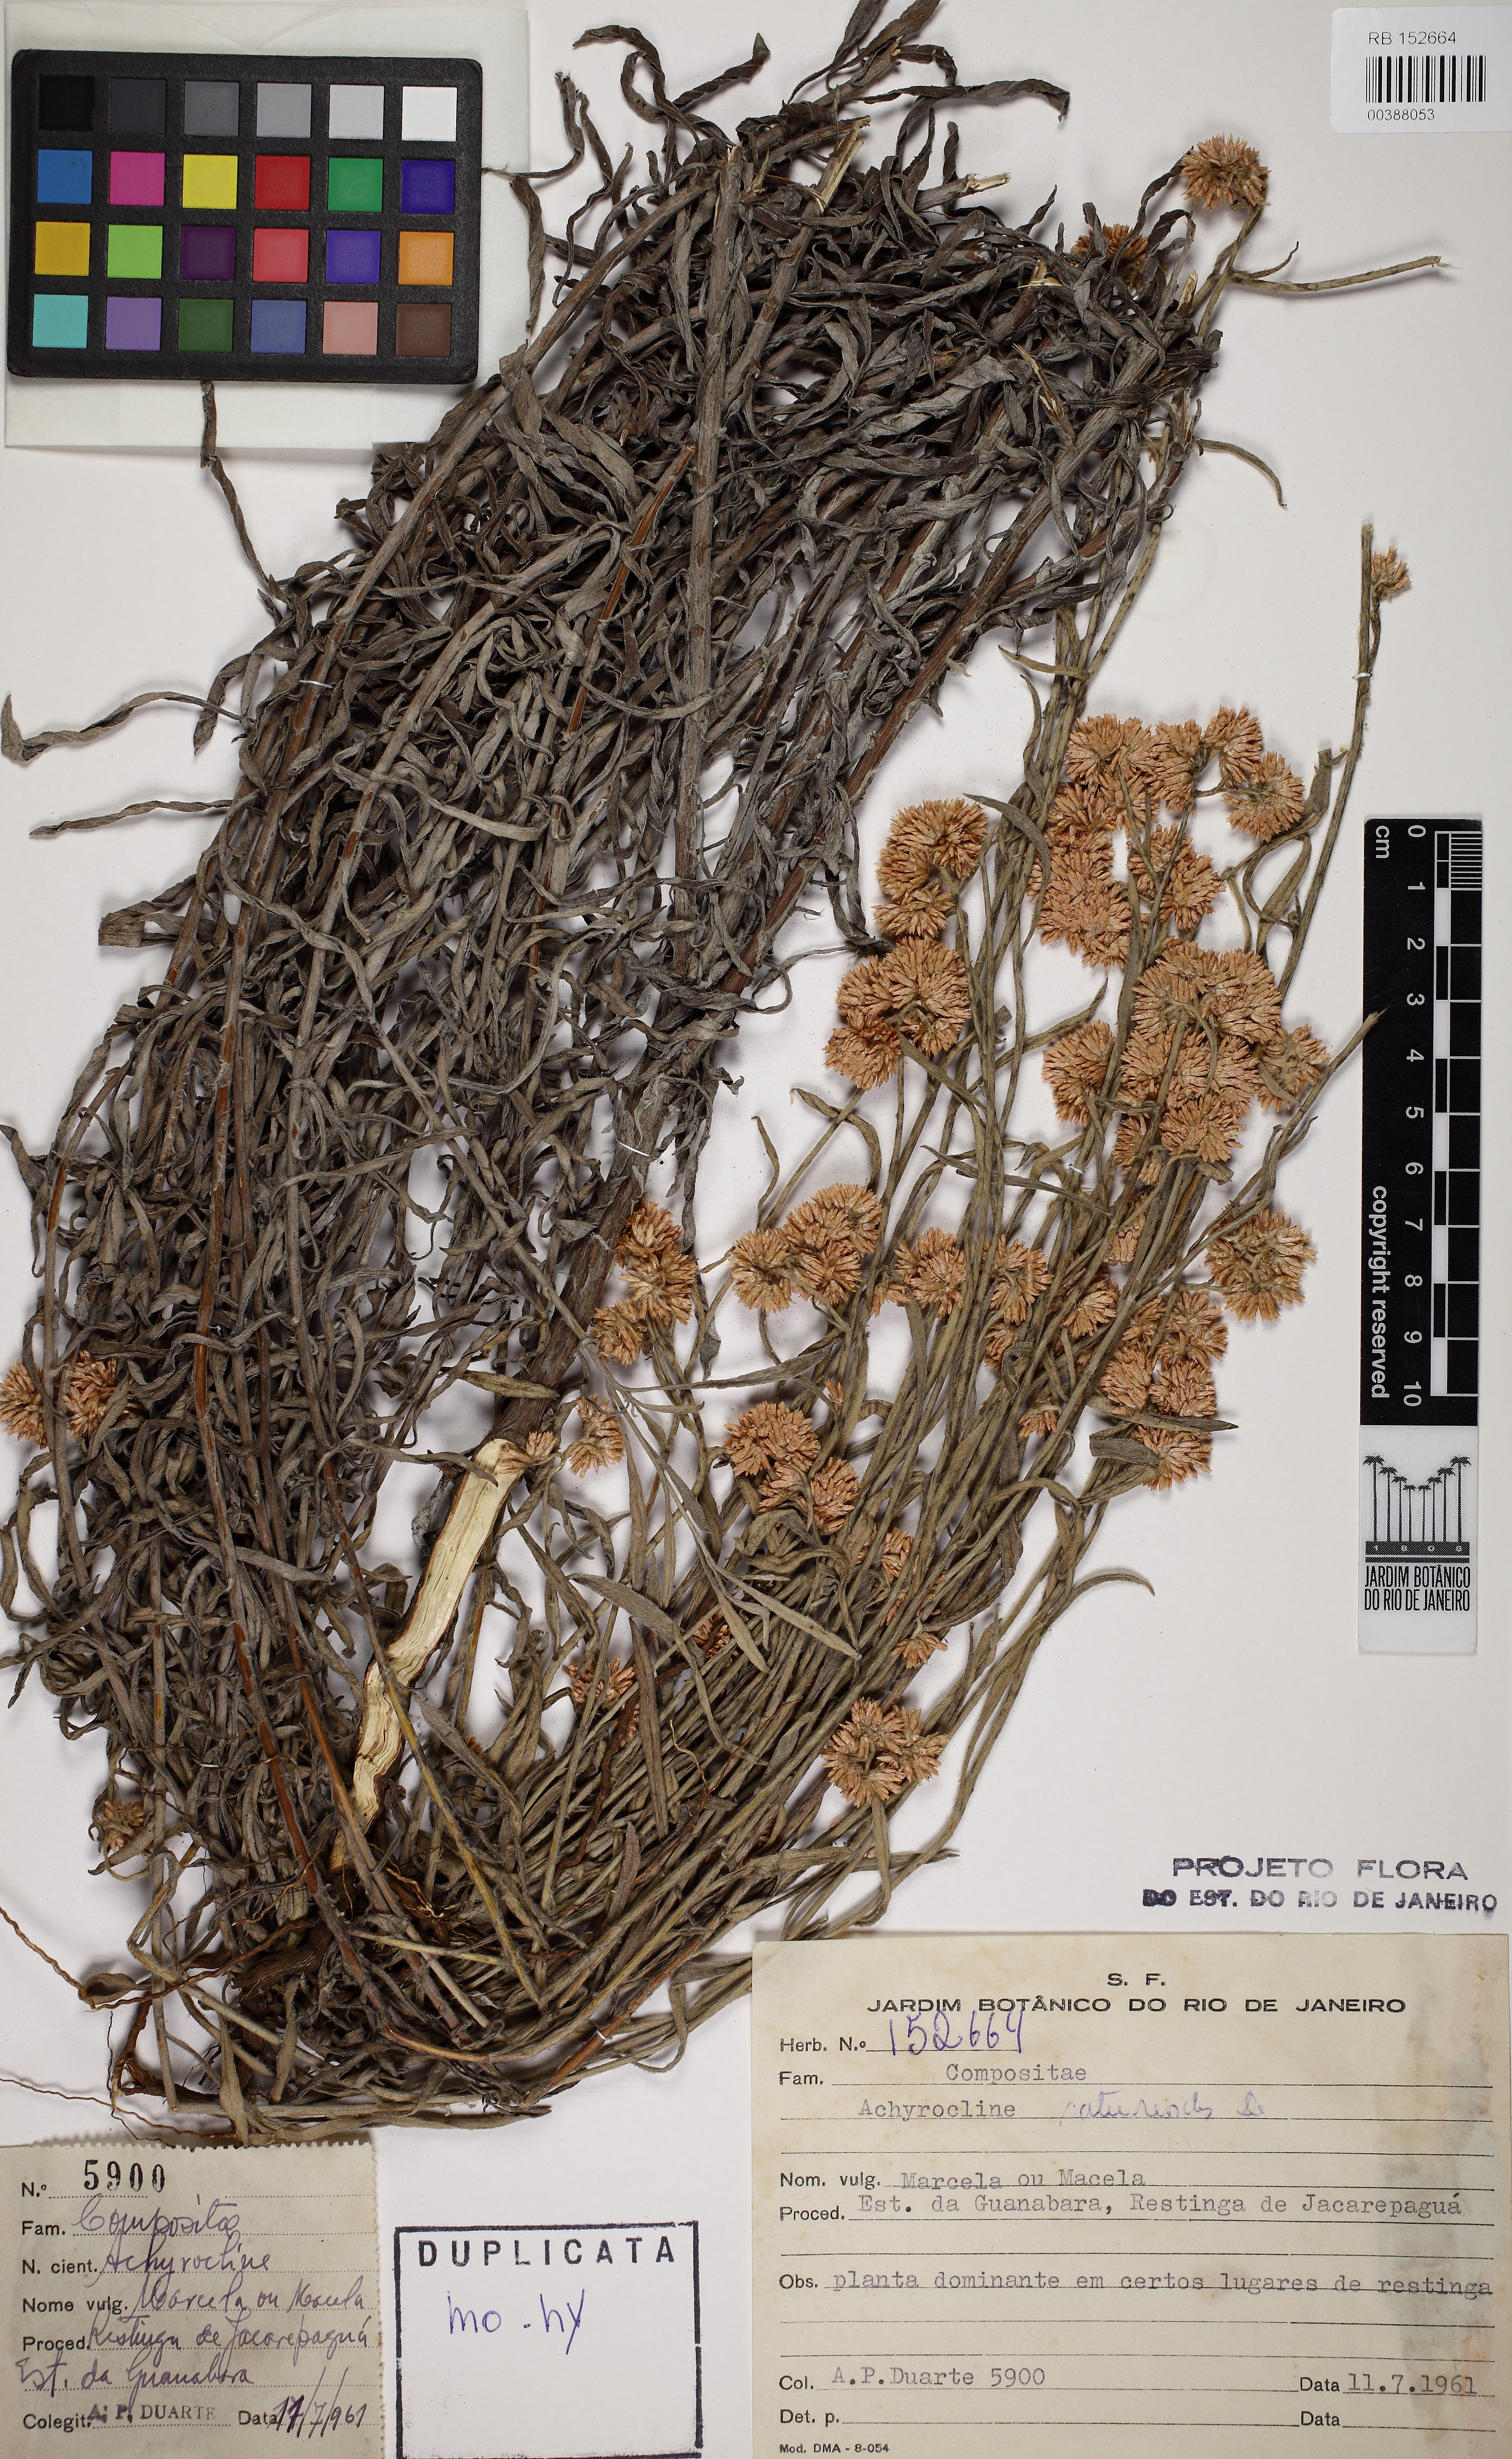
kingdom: Plantae
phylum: Tracheophyta
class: Magnoliopsida
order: Asterales
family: Asteraceae
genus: Achyrocline
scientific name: Achyrocline satureioides
